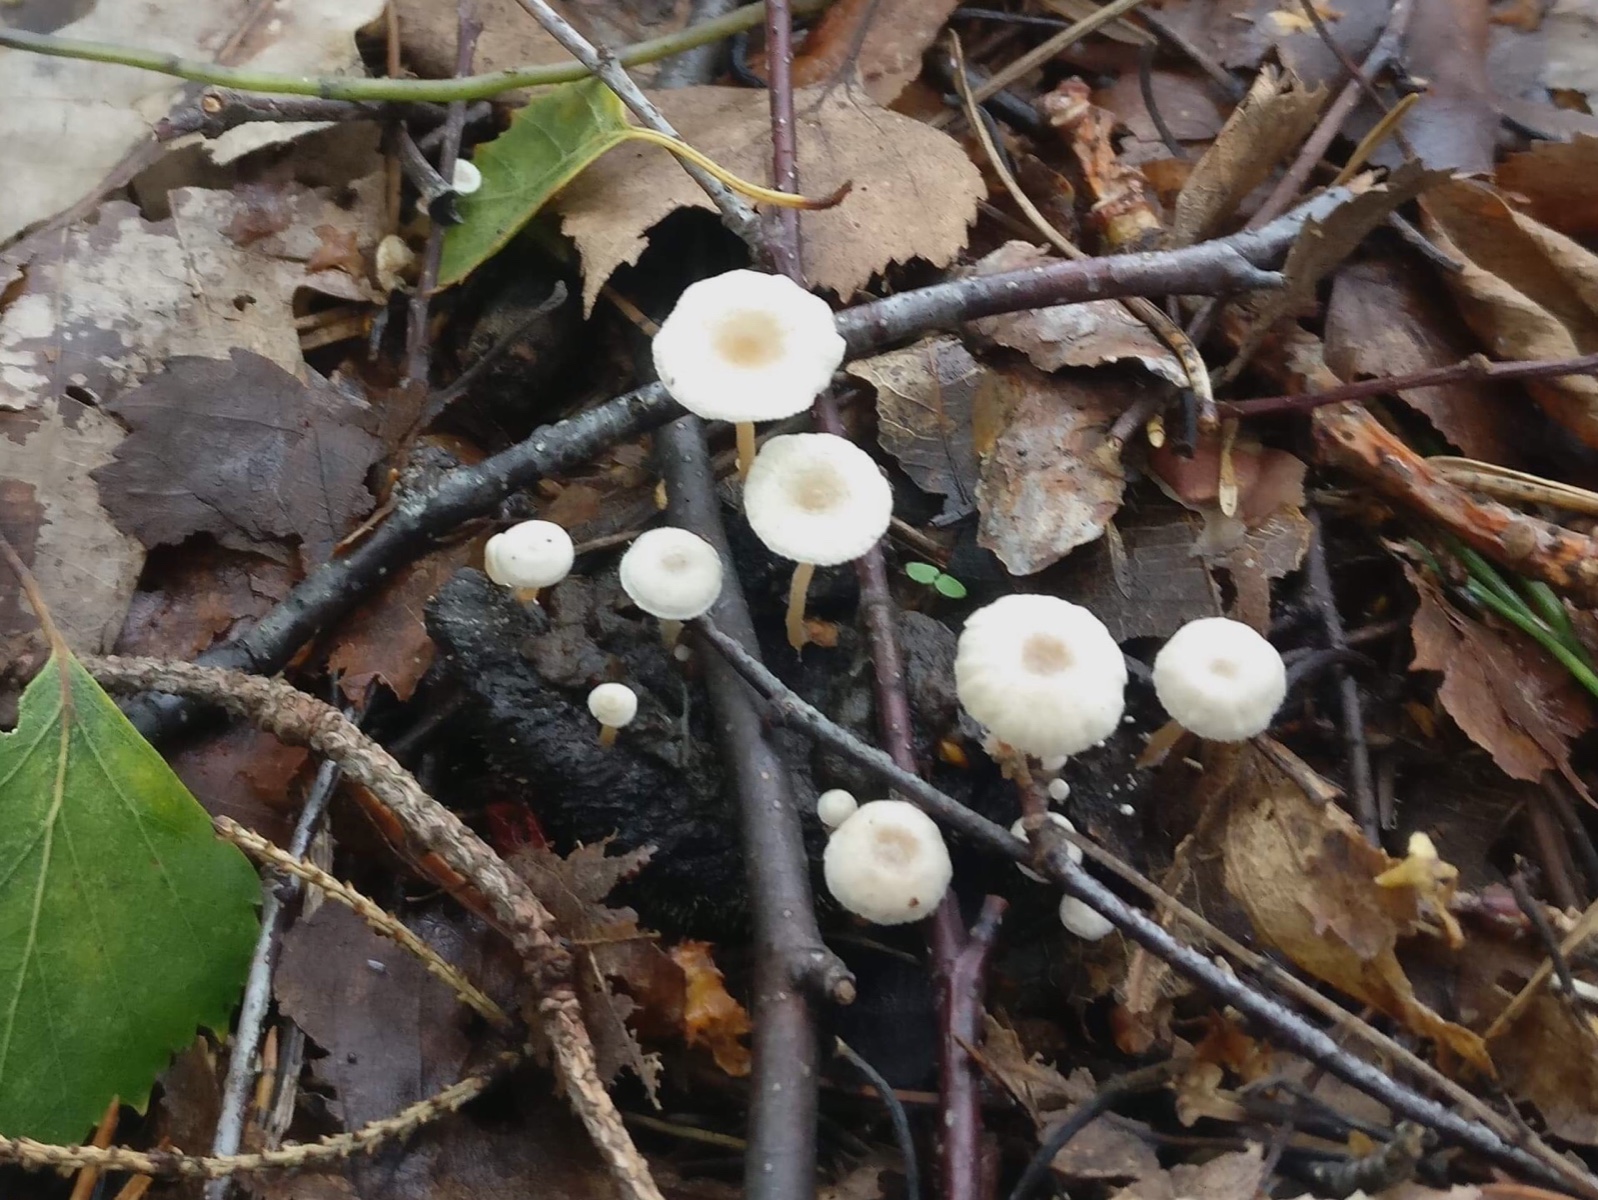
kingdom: Fungi
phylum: Basidiomycota
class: Agaricomycetes
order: Agaricales
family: Tricholomataceae
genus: Collybia
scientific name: Collybia cirrhata
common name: silke-lighat
